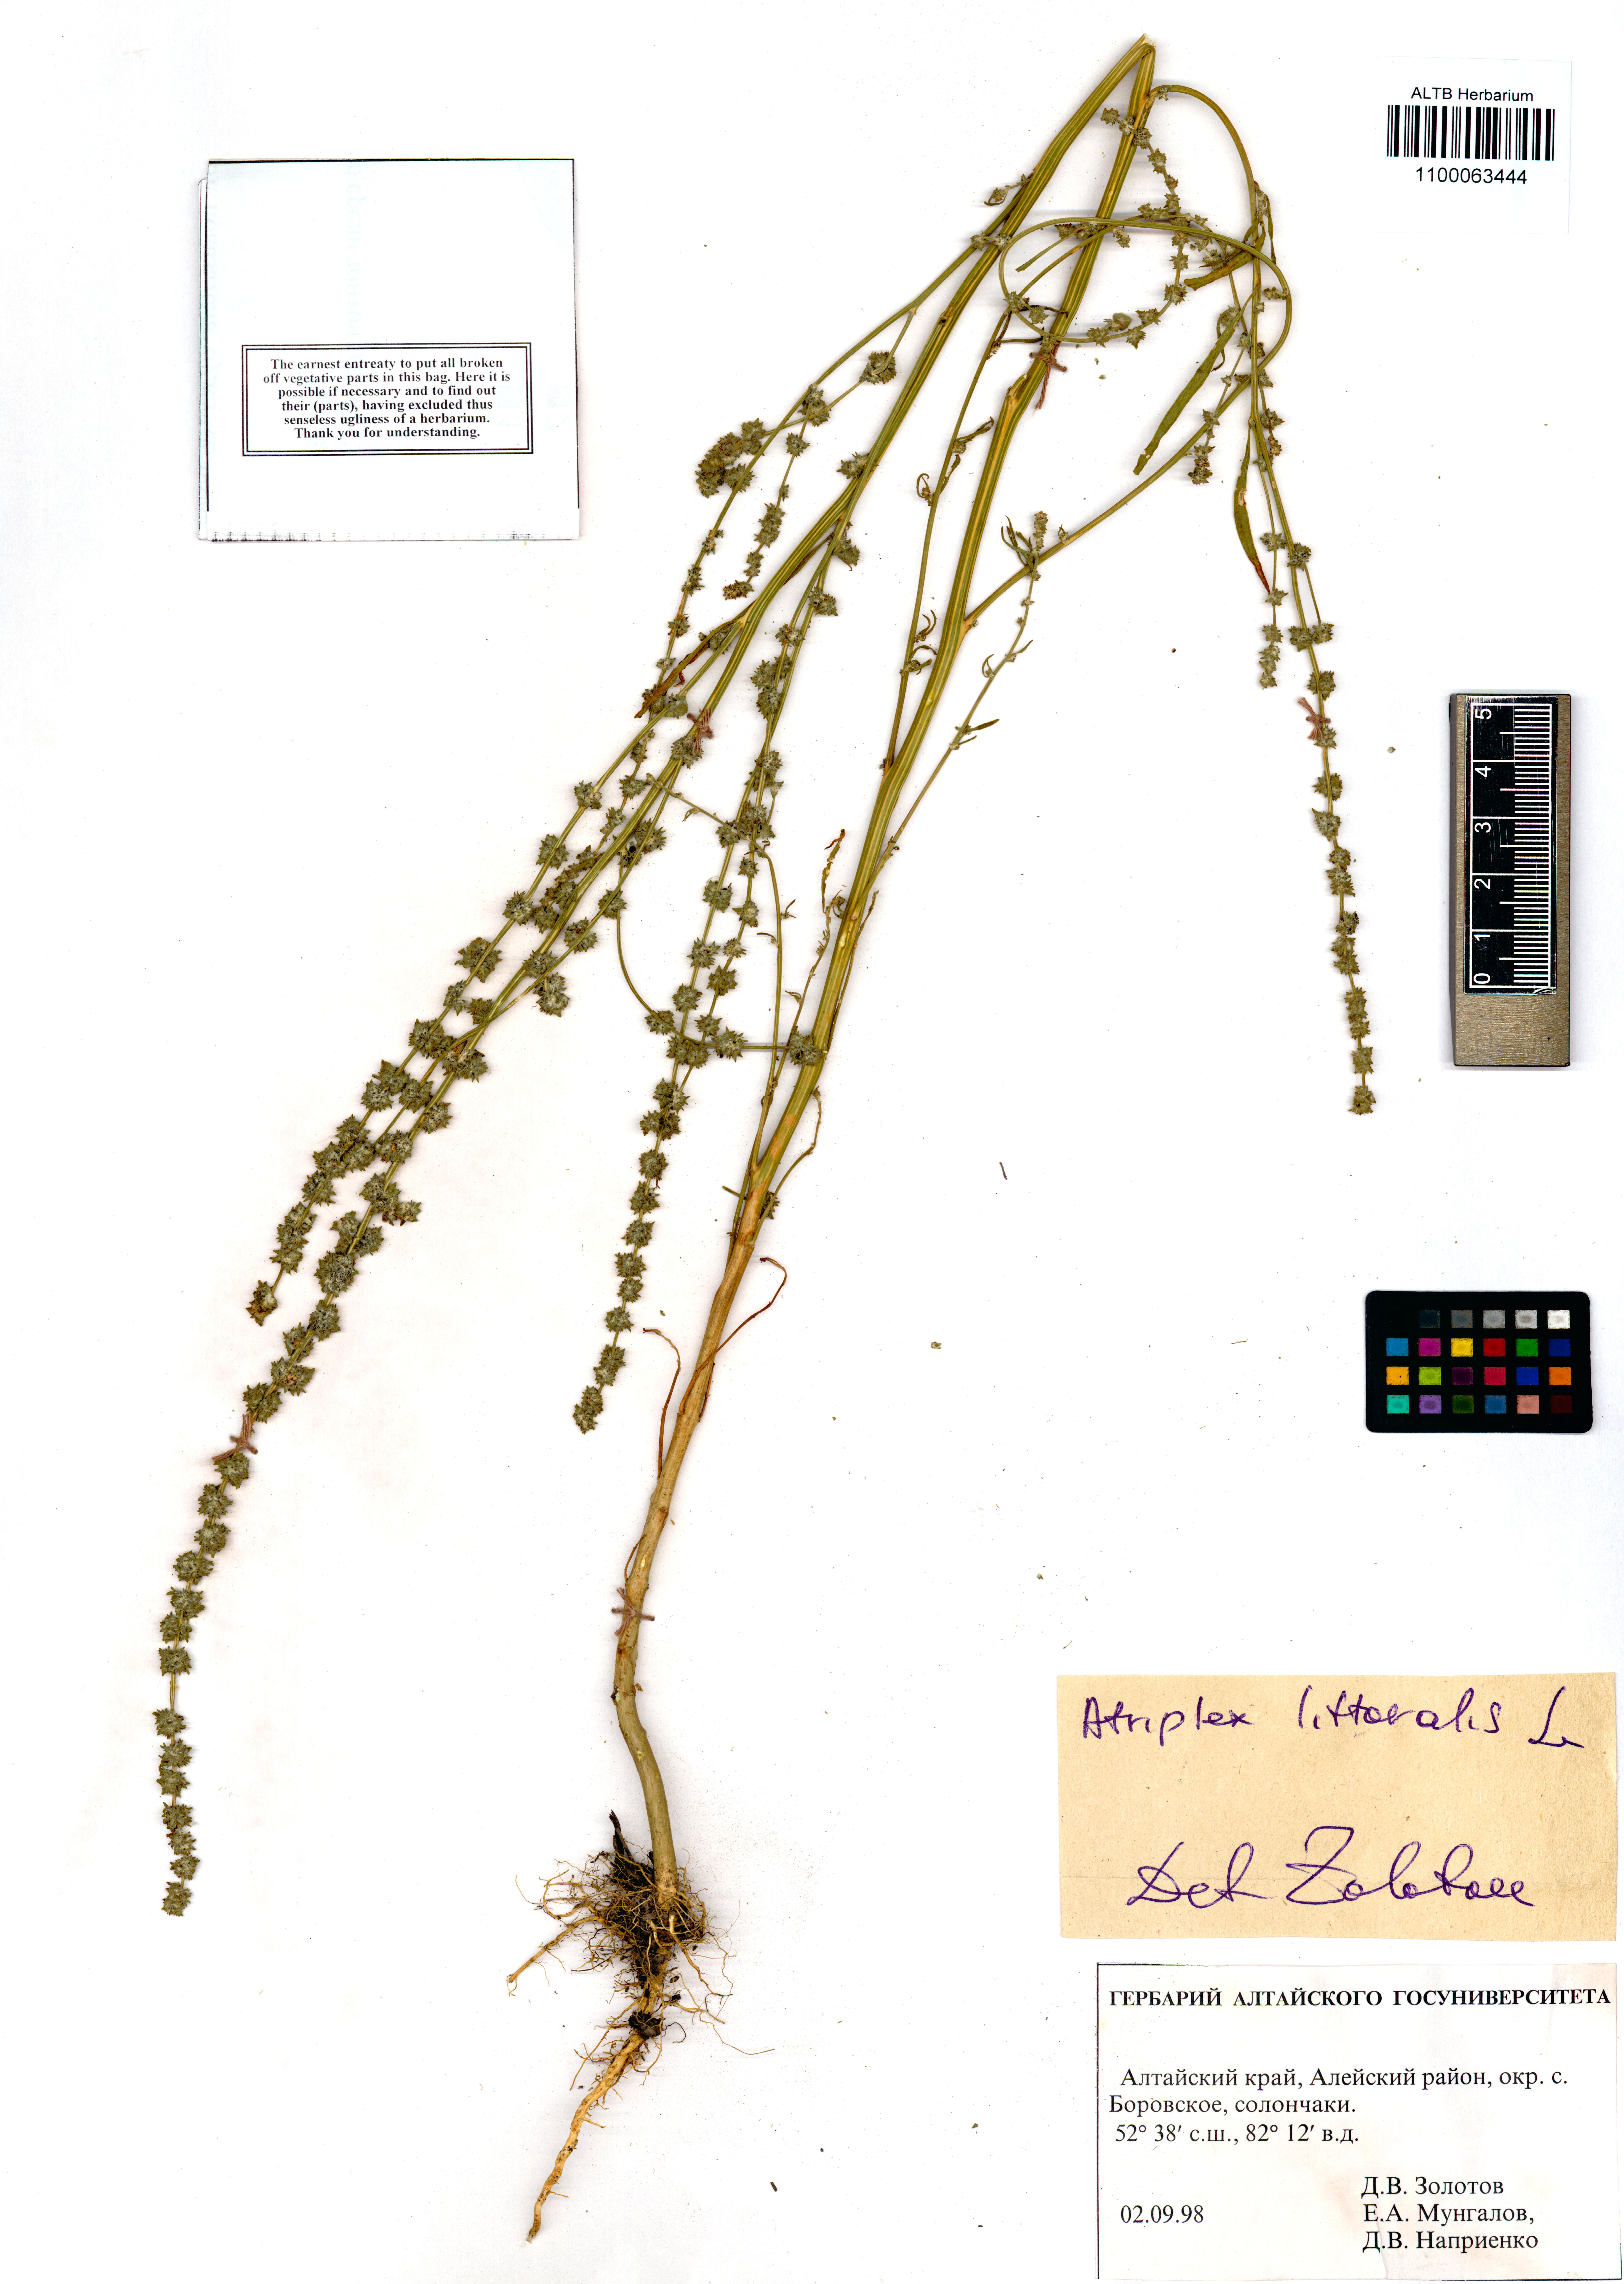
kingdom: Plantae
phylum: Tracheophyta
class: Magnoliopsida
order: Caryophyllales
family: Amaranthaceae
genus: Atriplex
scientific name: Atriplex littoralis
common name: Grass-leaved orache
